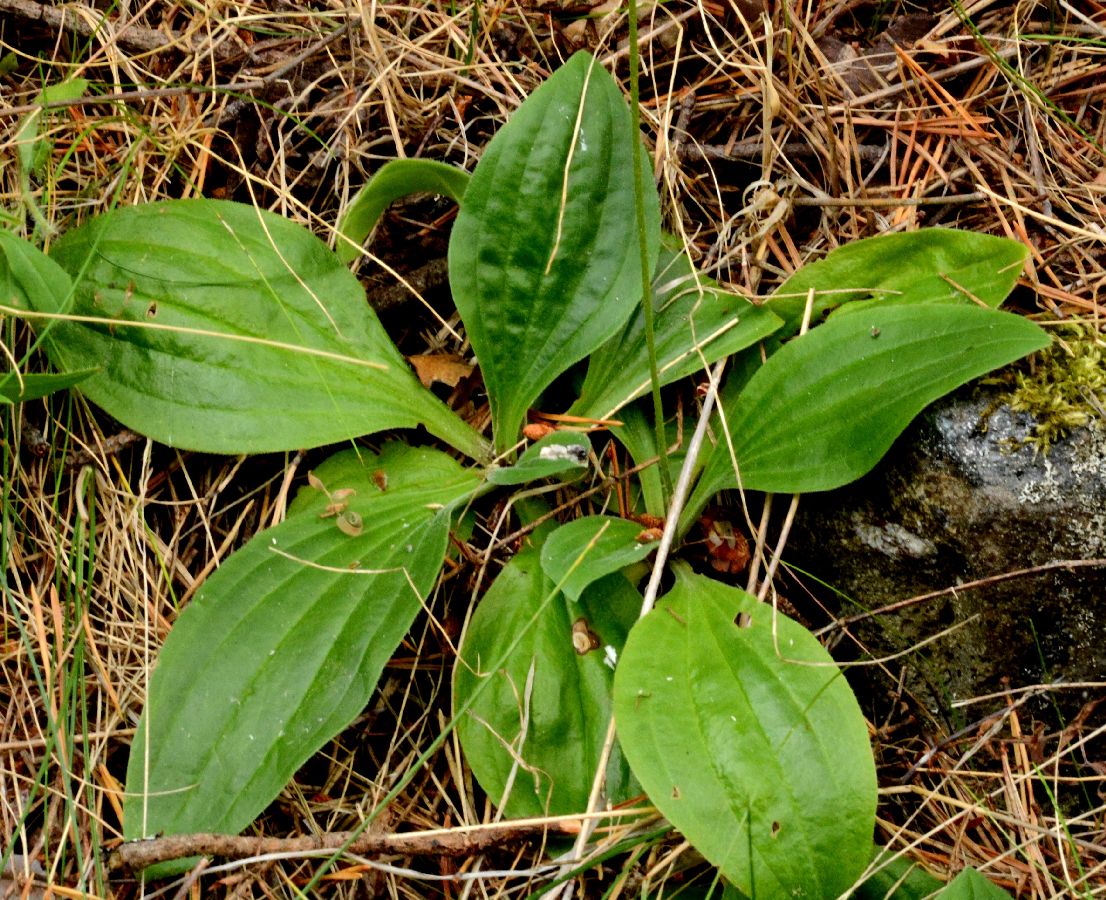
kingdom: Plantae
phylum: Tracheophyta
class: Magnoliopsida
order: Lamiales
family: Plantaginaceae
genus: Plantago
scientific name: Plantago media
